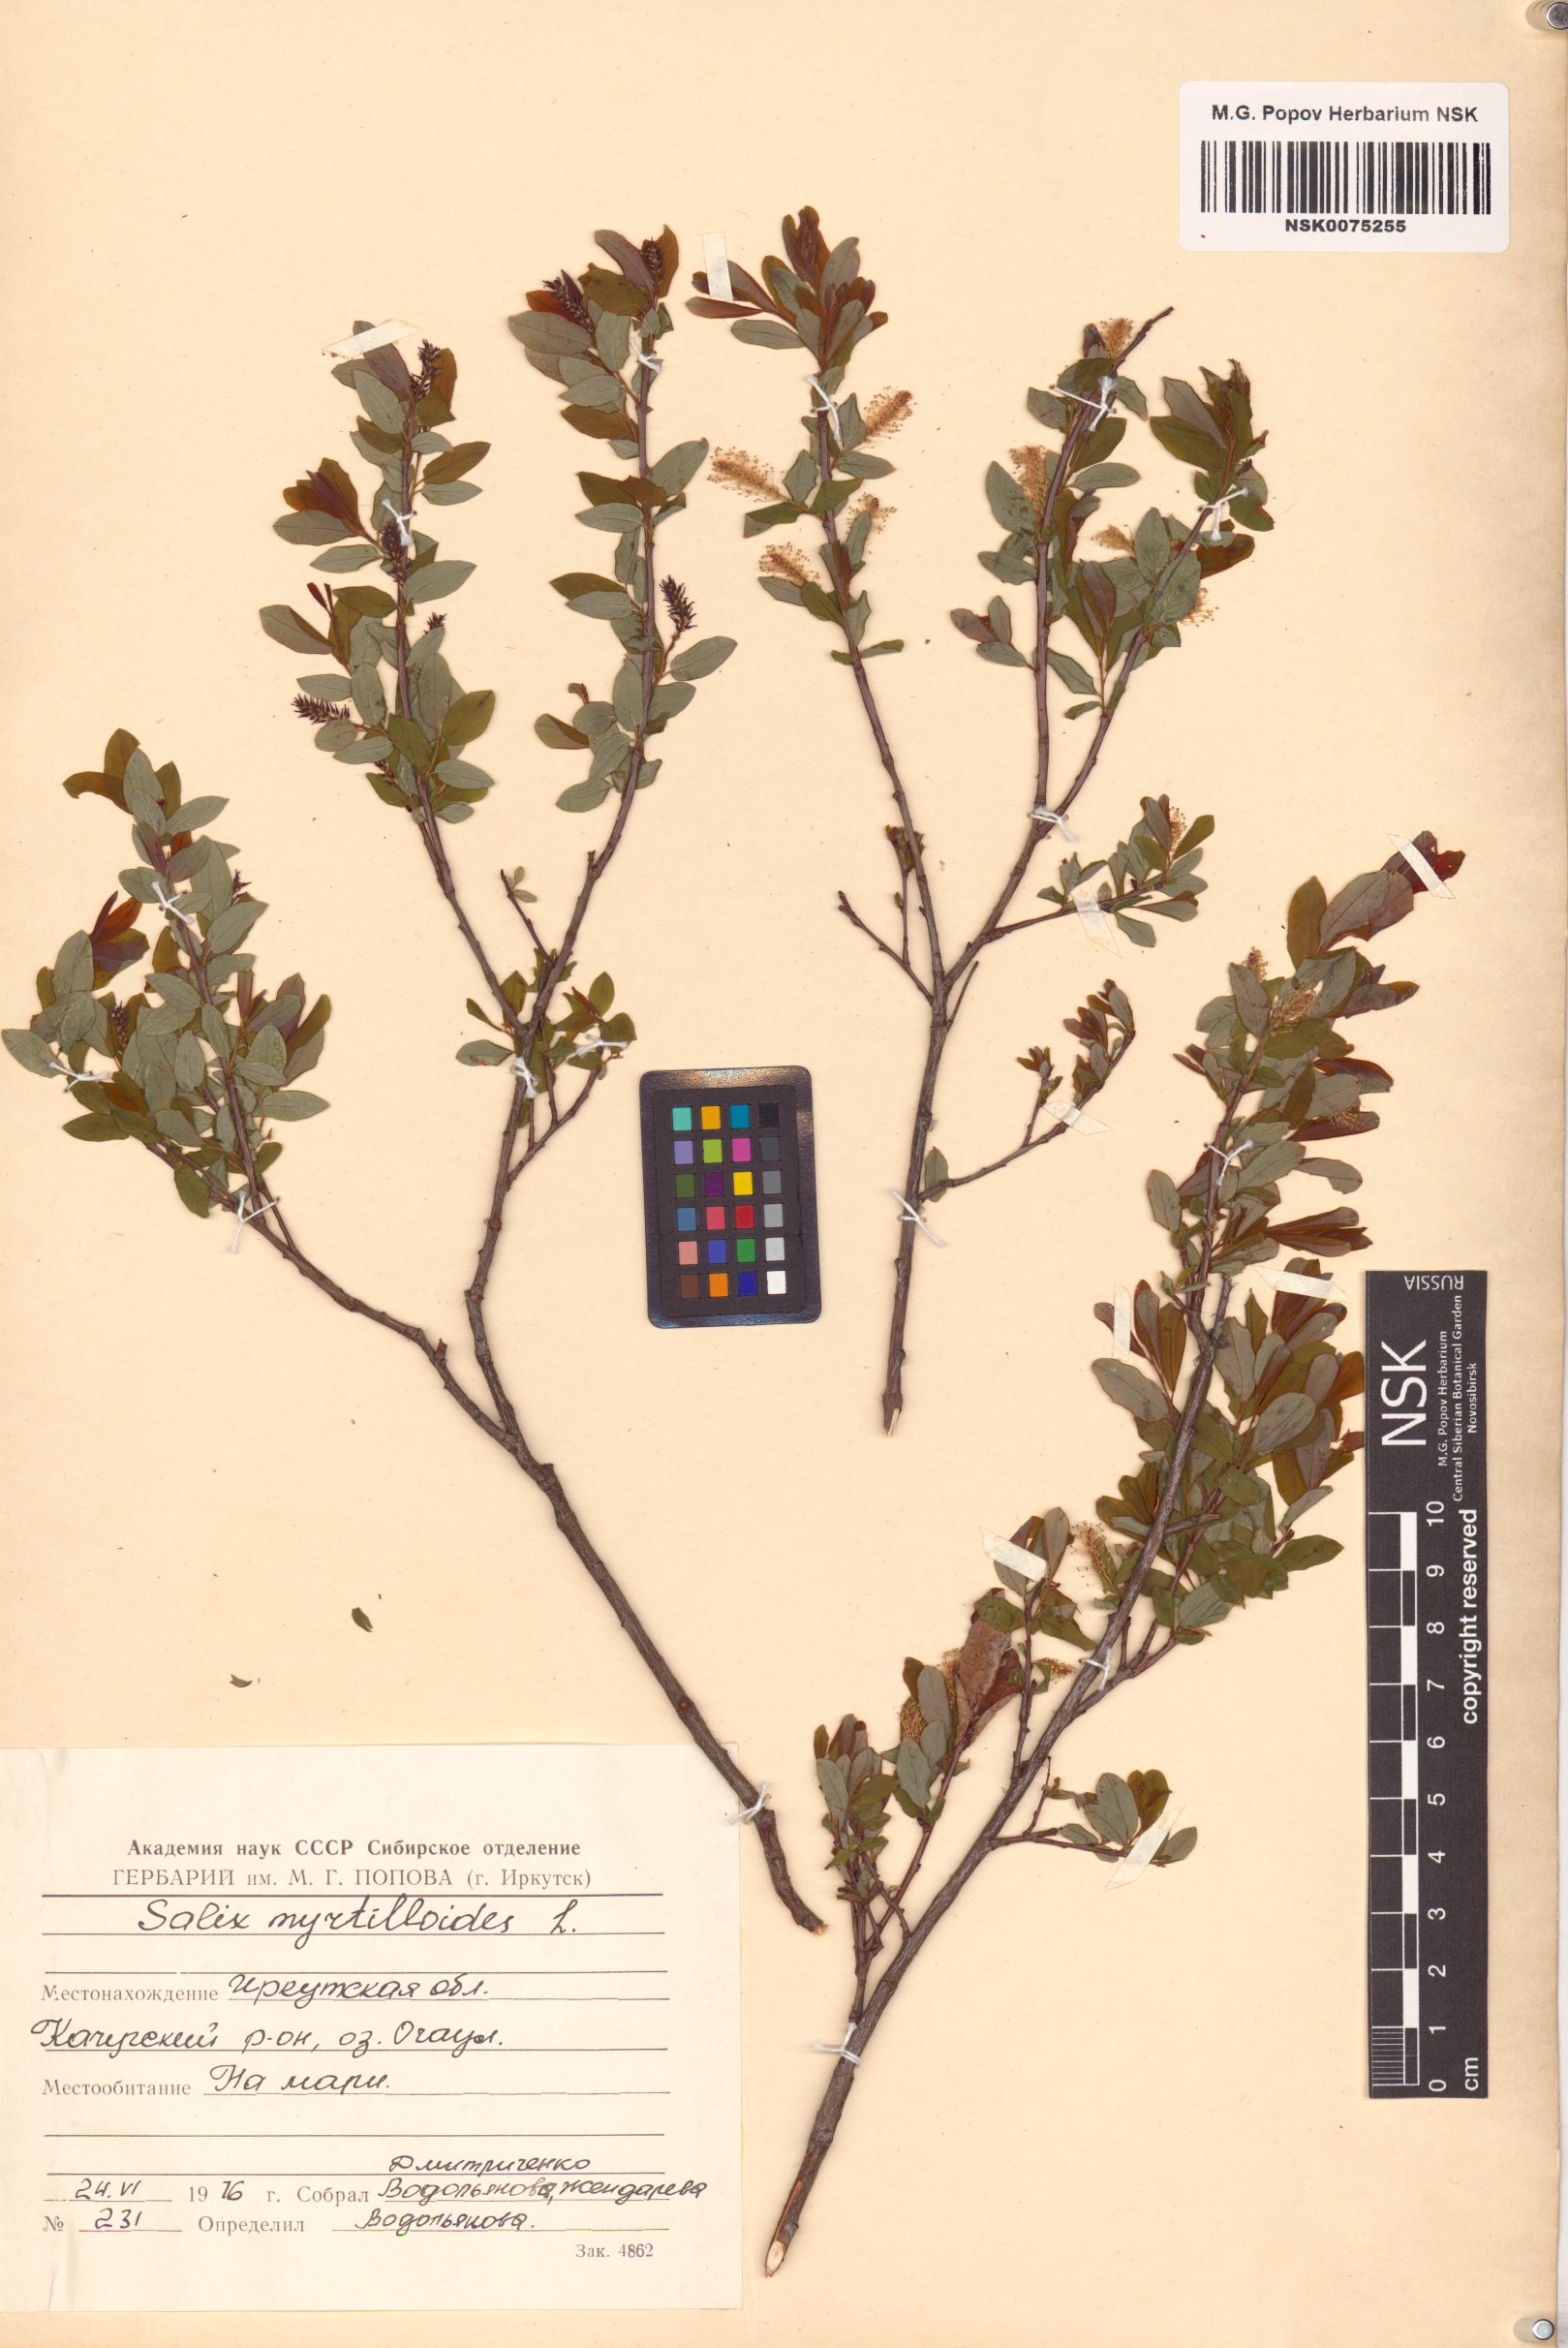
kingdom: Plantae
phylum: Tracheophyta
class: Magnoliopsida
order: Malpighiales
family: Salicaceae
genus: Salix
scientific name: Salix myrtilloides
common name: Myrtle-leaved willow
